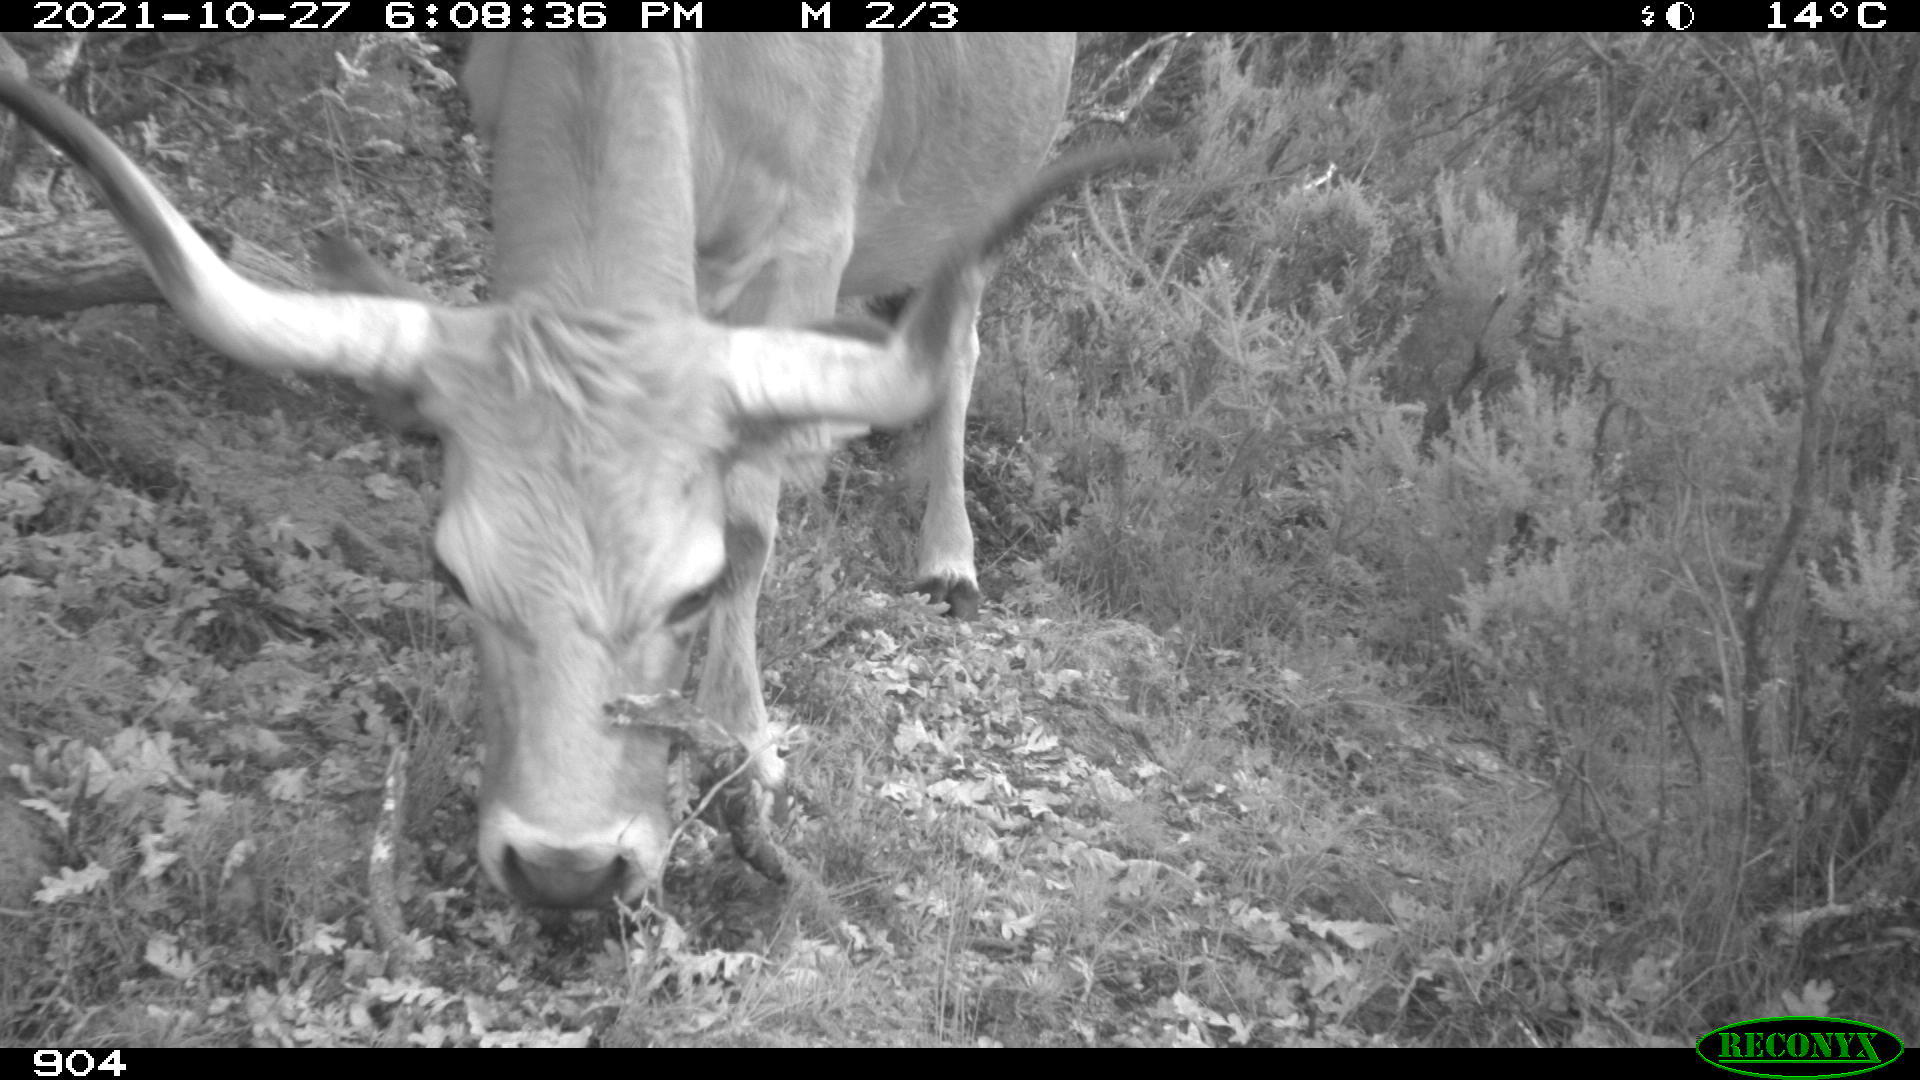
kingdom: Animalia
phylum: Chordata
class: Mammalia
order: Artiodactyla
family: Bovidae
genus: Bos
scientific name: Bos taurus
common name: Domesticated cattle
